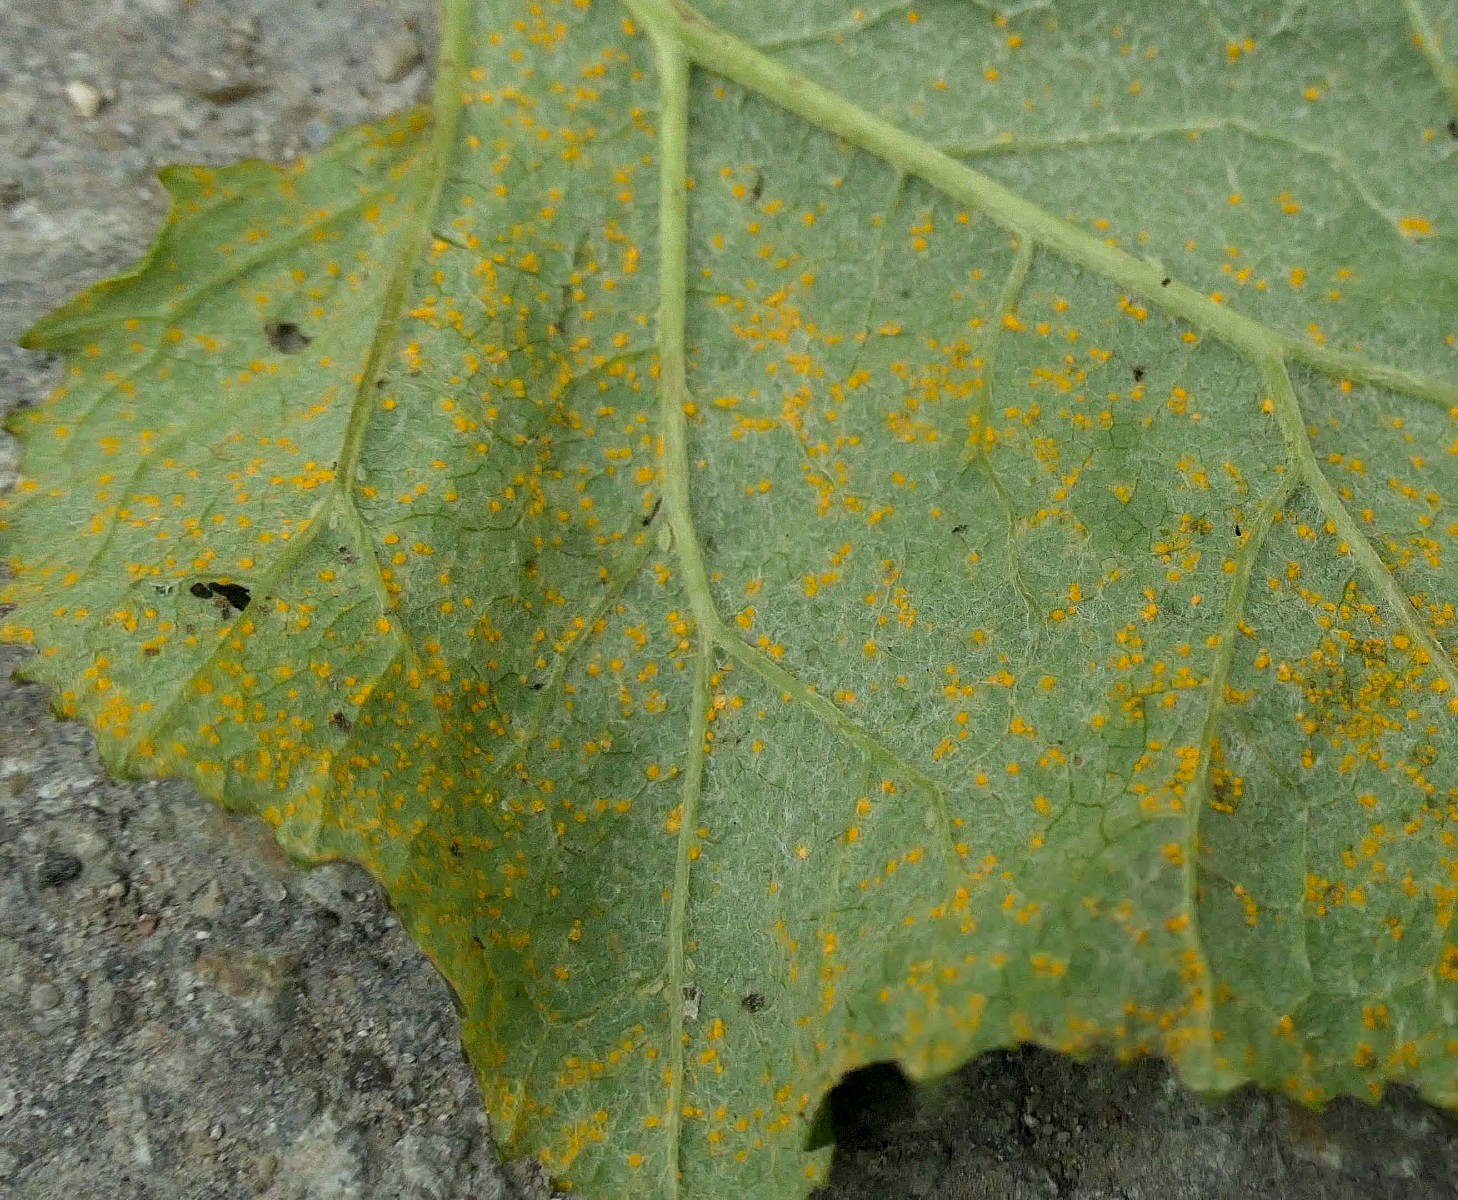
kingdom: Fungi
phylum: Basidiomycota
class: Pucciniomycetes
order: Pucciniales
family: Coleosporiaceae
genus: Coleosporium
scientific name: Coleosporium tussilaginis
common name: almindelig fyrrenålerust
